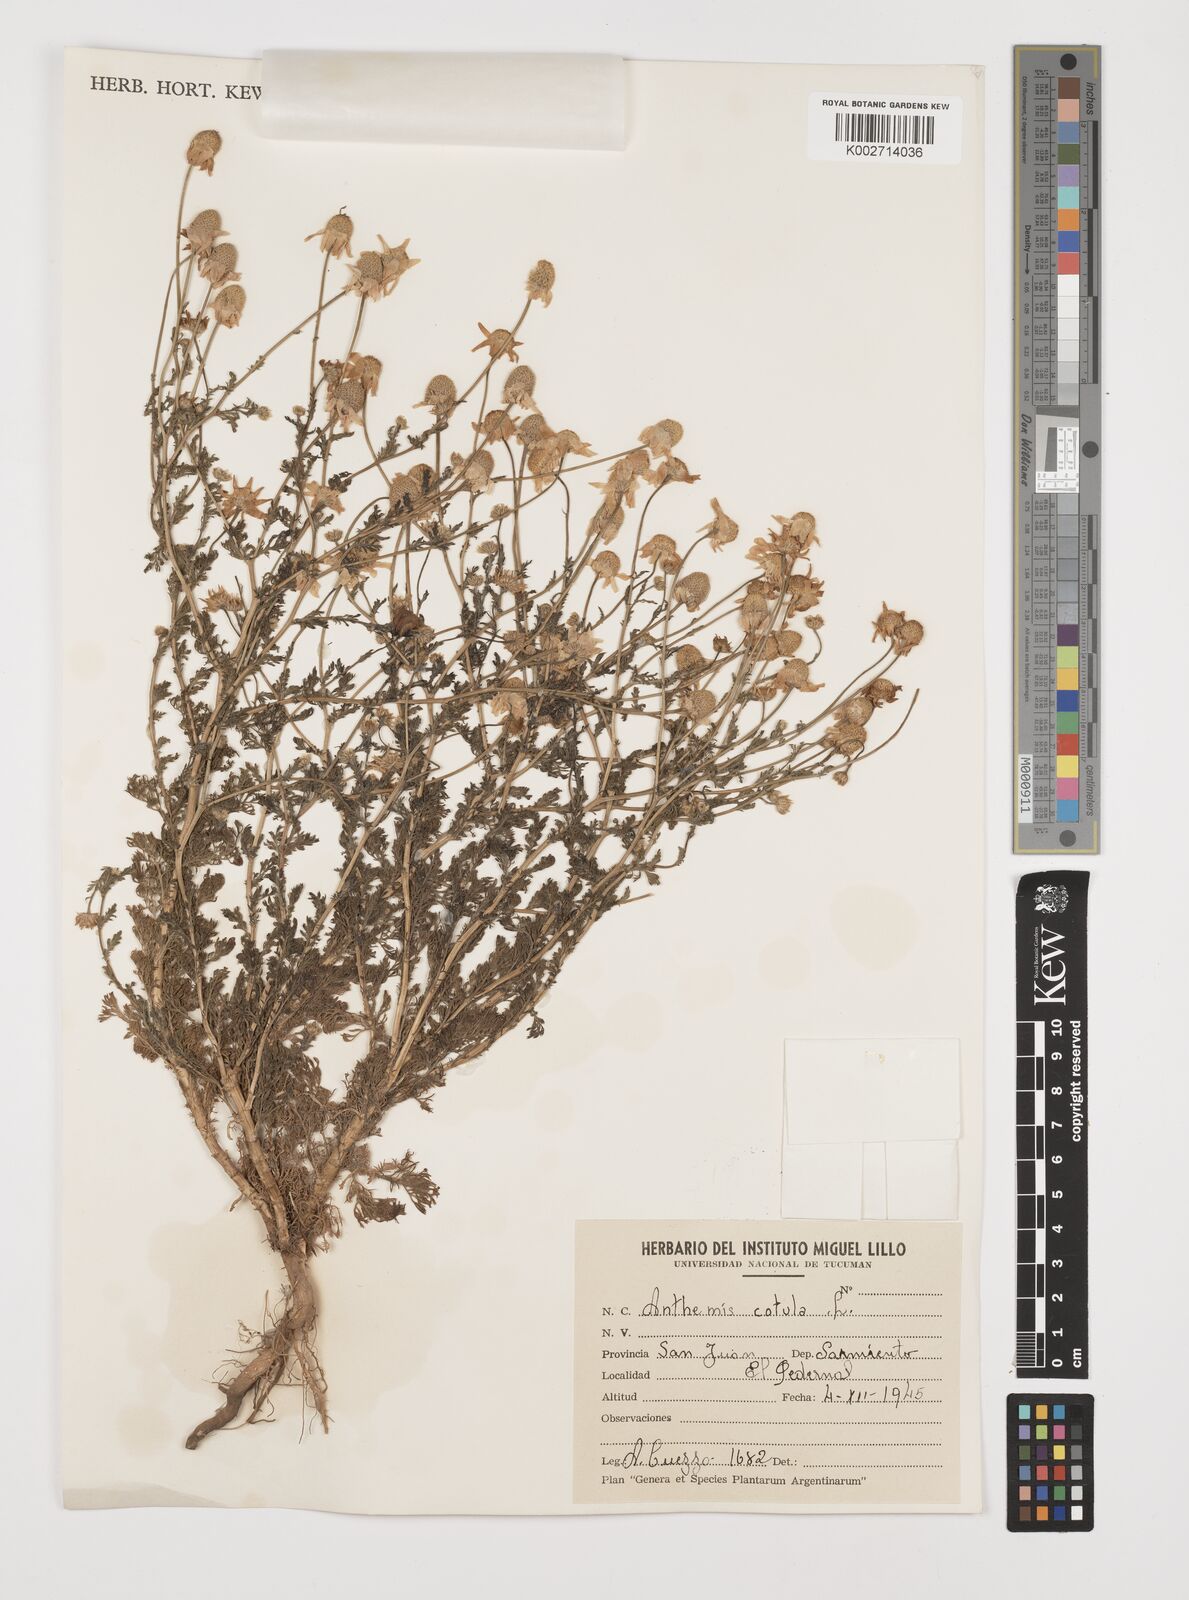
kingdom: Plantae
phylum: Tracheophyta
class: Magnoliopsida
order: Asterales
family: Asteraceae
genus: Anthemis
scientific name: Anthemis cotula
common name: Stinking chamomile
